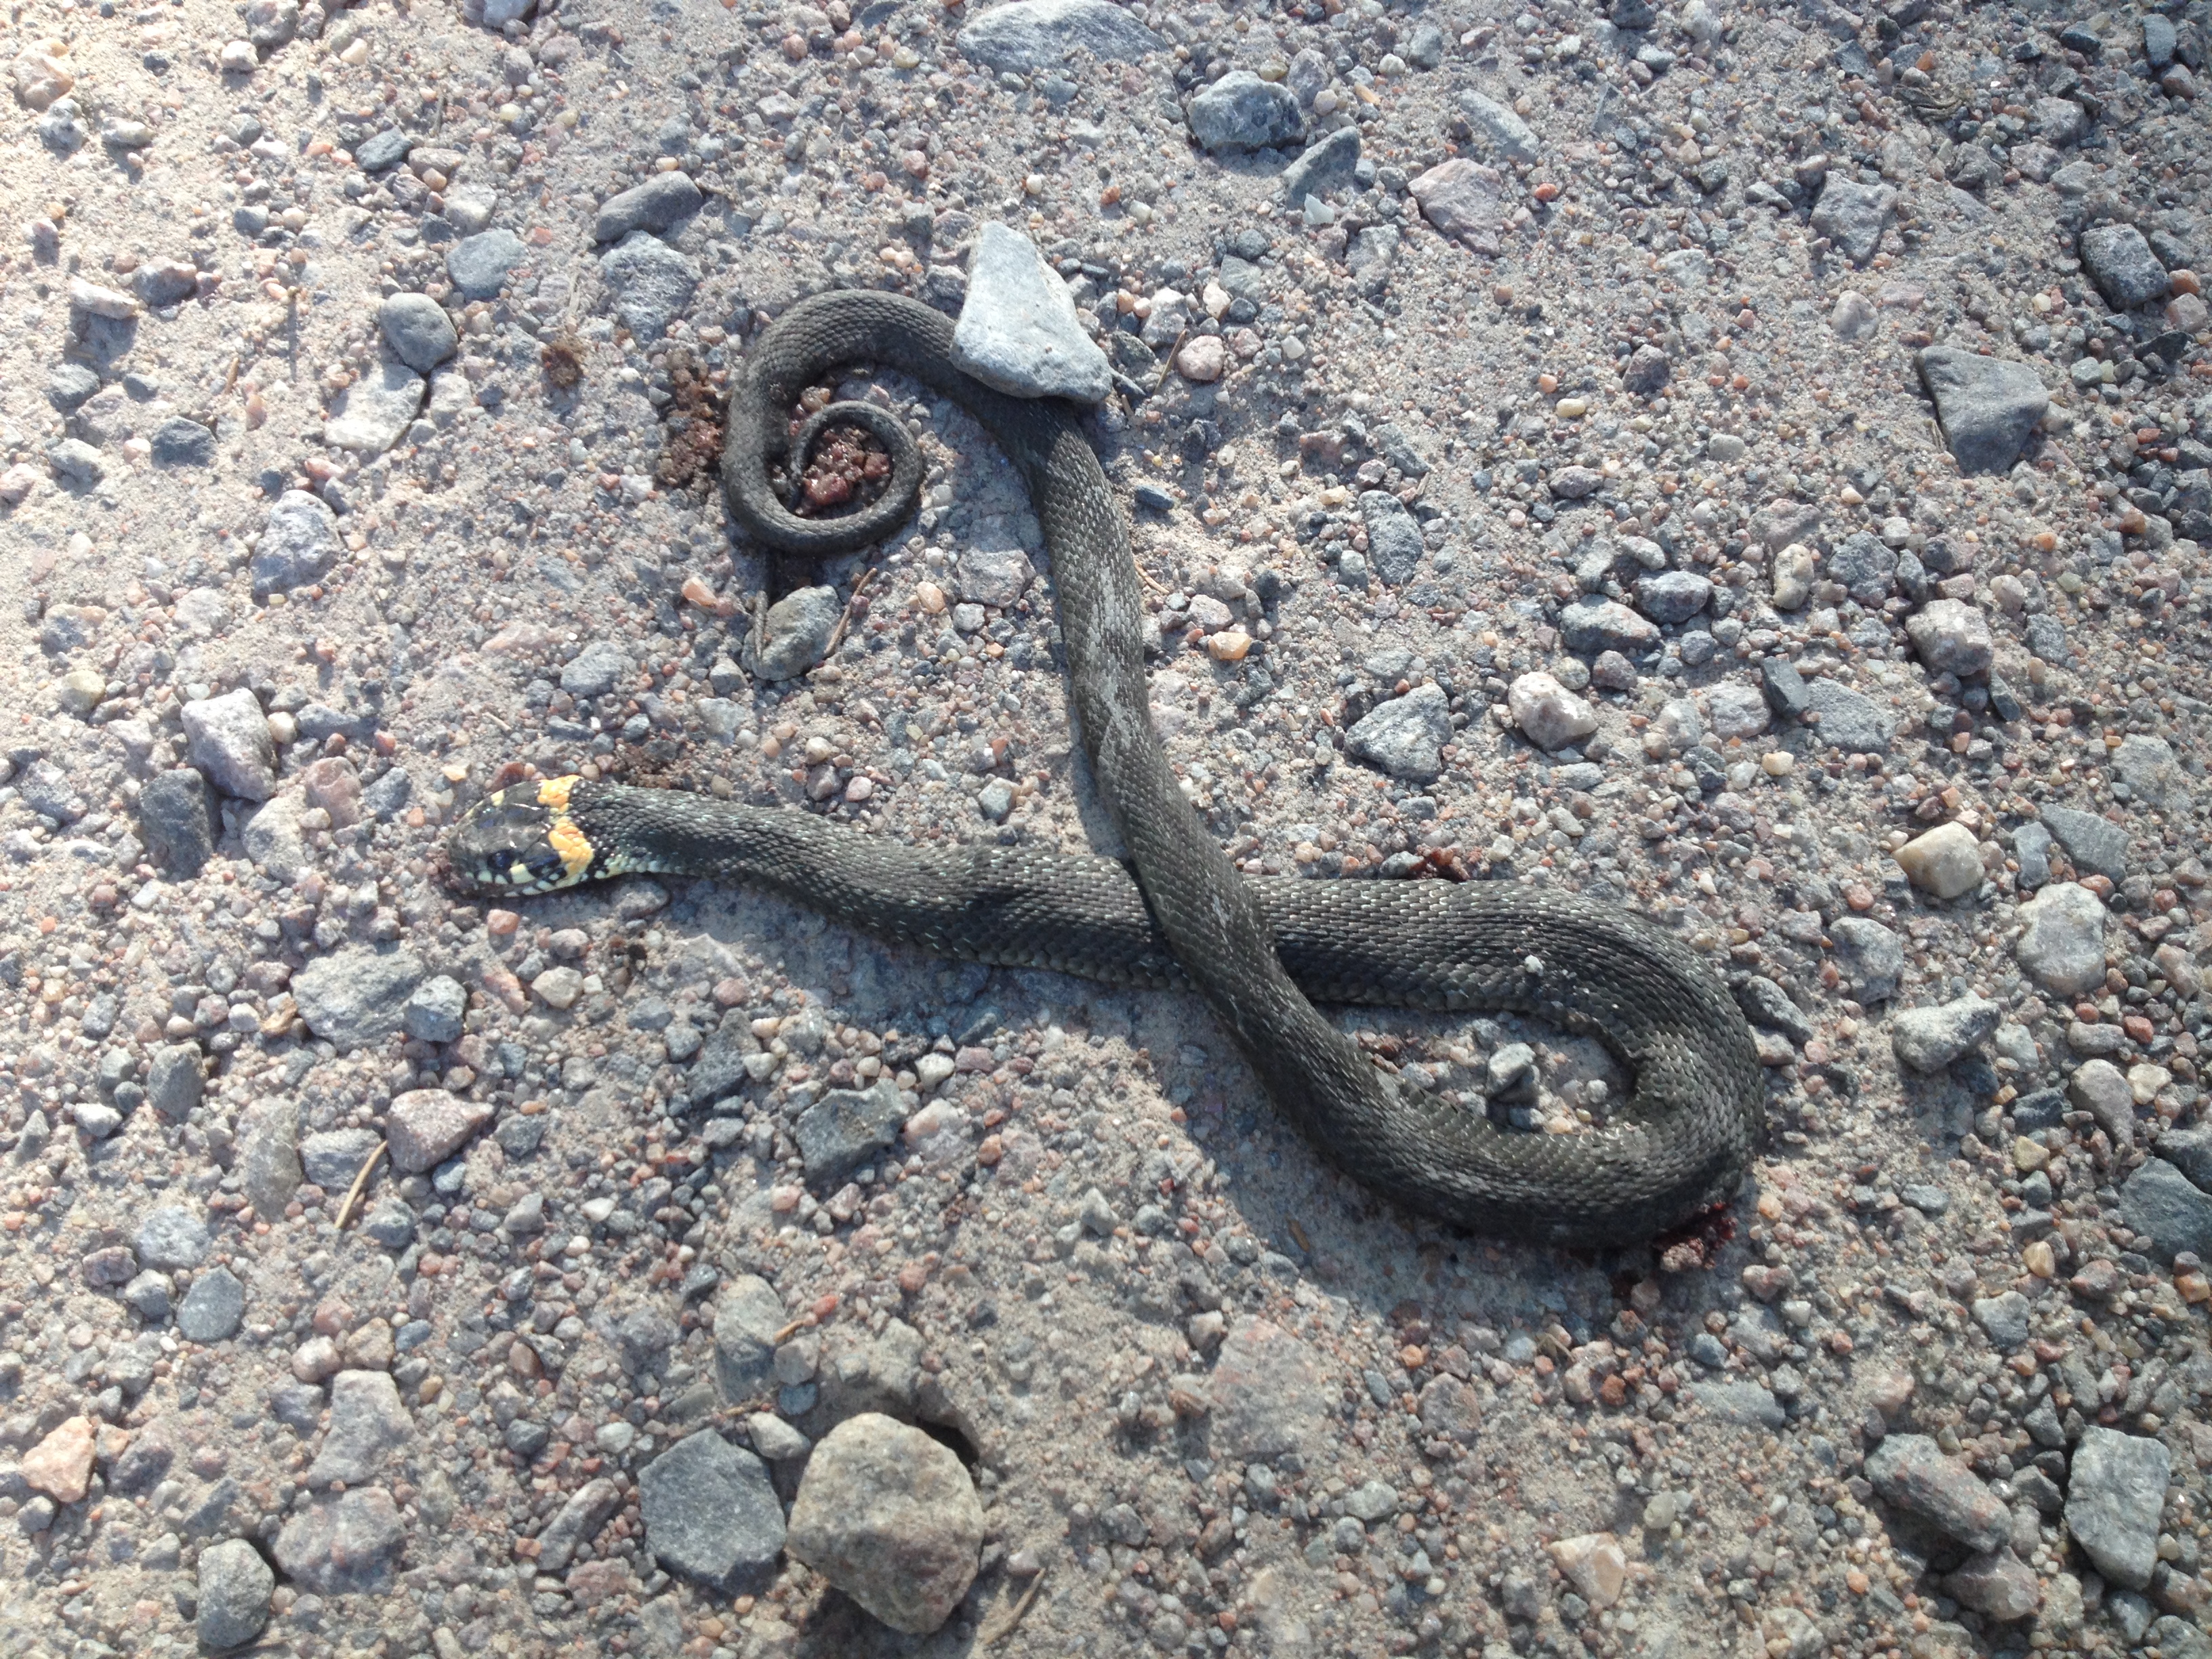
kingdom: Animalia
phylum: Chordata
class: Squamata
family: Colubridae
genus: Natrix
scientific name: Natrix natrix
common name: Grass snake
